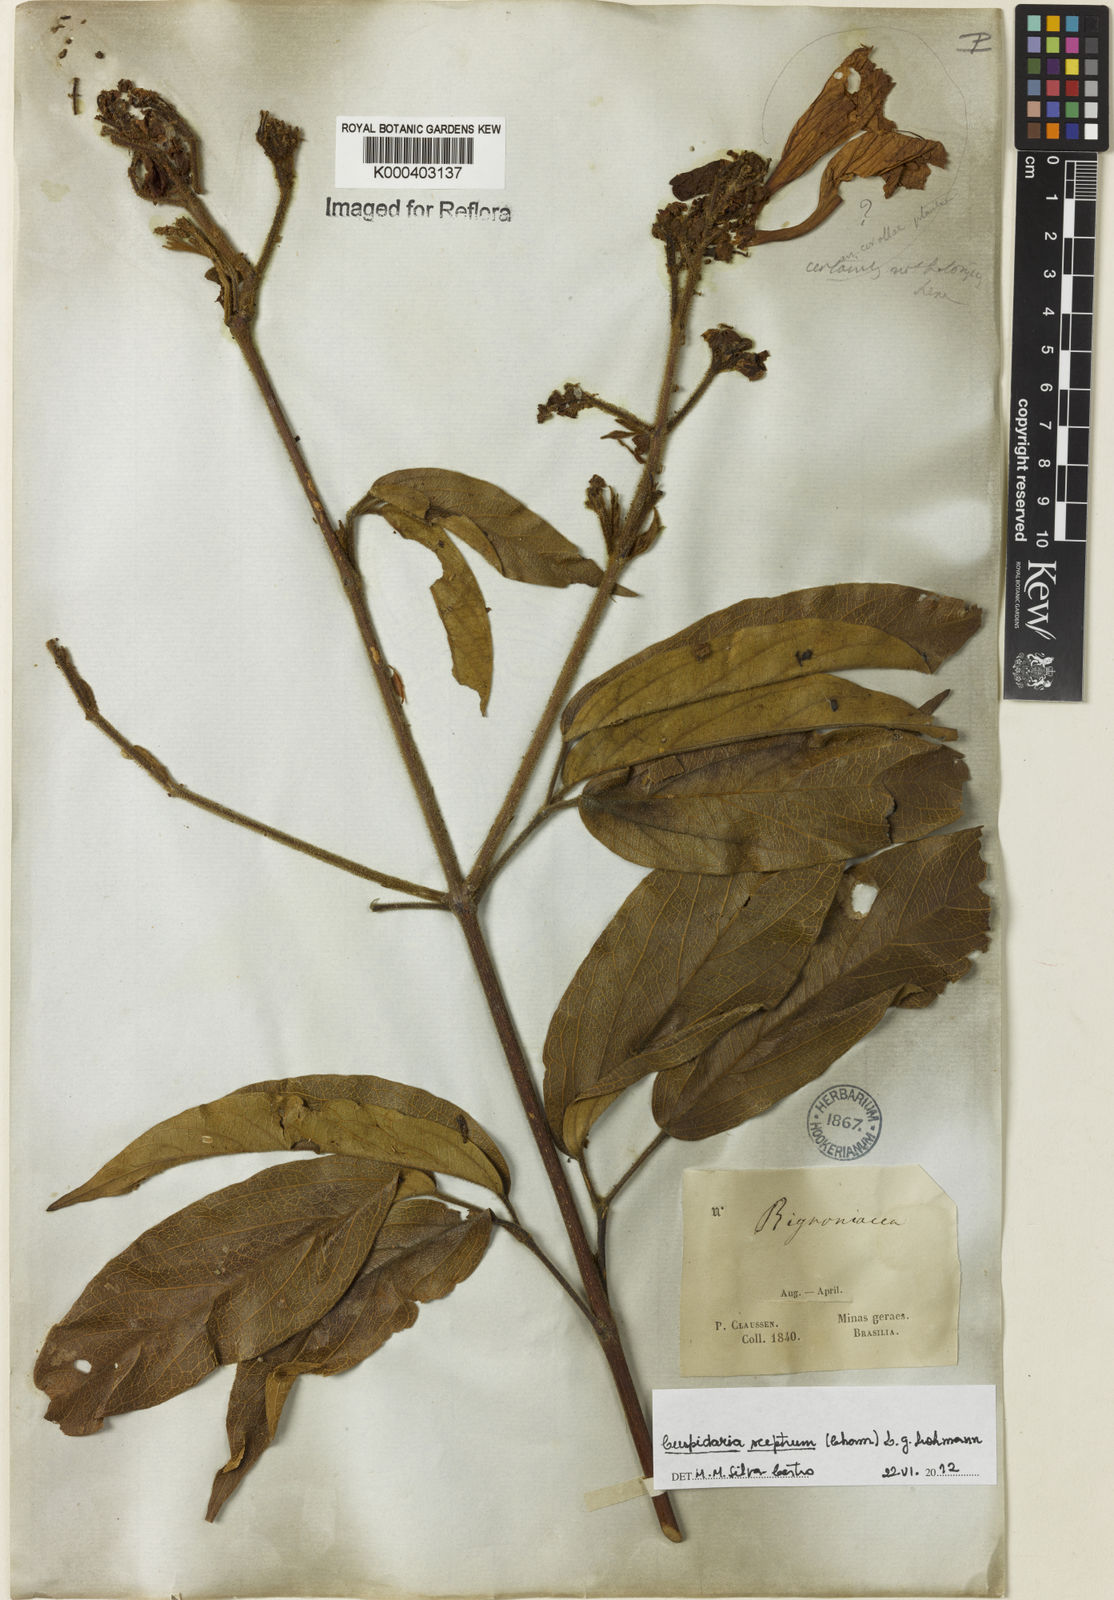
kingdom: Plantae
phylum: Tracheophyta
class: Magnoliopsida
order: Lamiales
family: Bignoniaceae
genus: Cuspidaria
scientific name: Cuspidaria sceptrum
